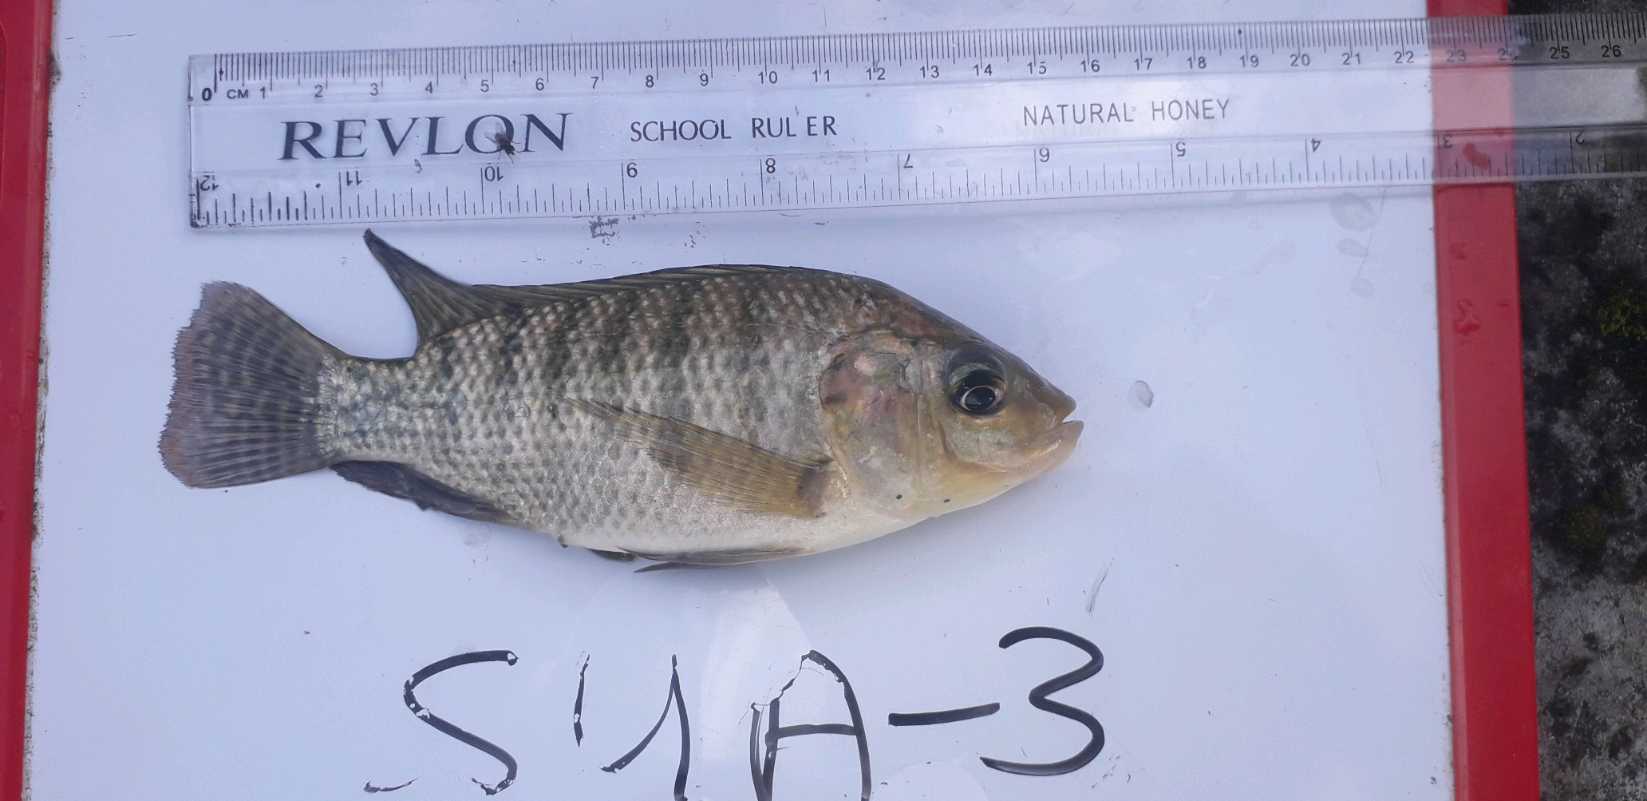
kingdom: Animalia
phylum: Chordata
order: Perciformes
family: Cichlidae
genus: Oreochromis
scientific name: Oreochromis niloticus
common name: Nile tilapia
